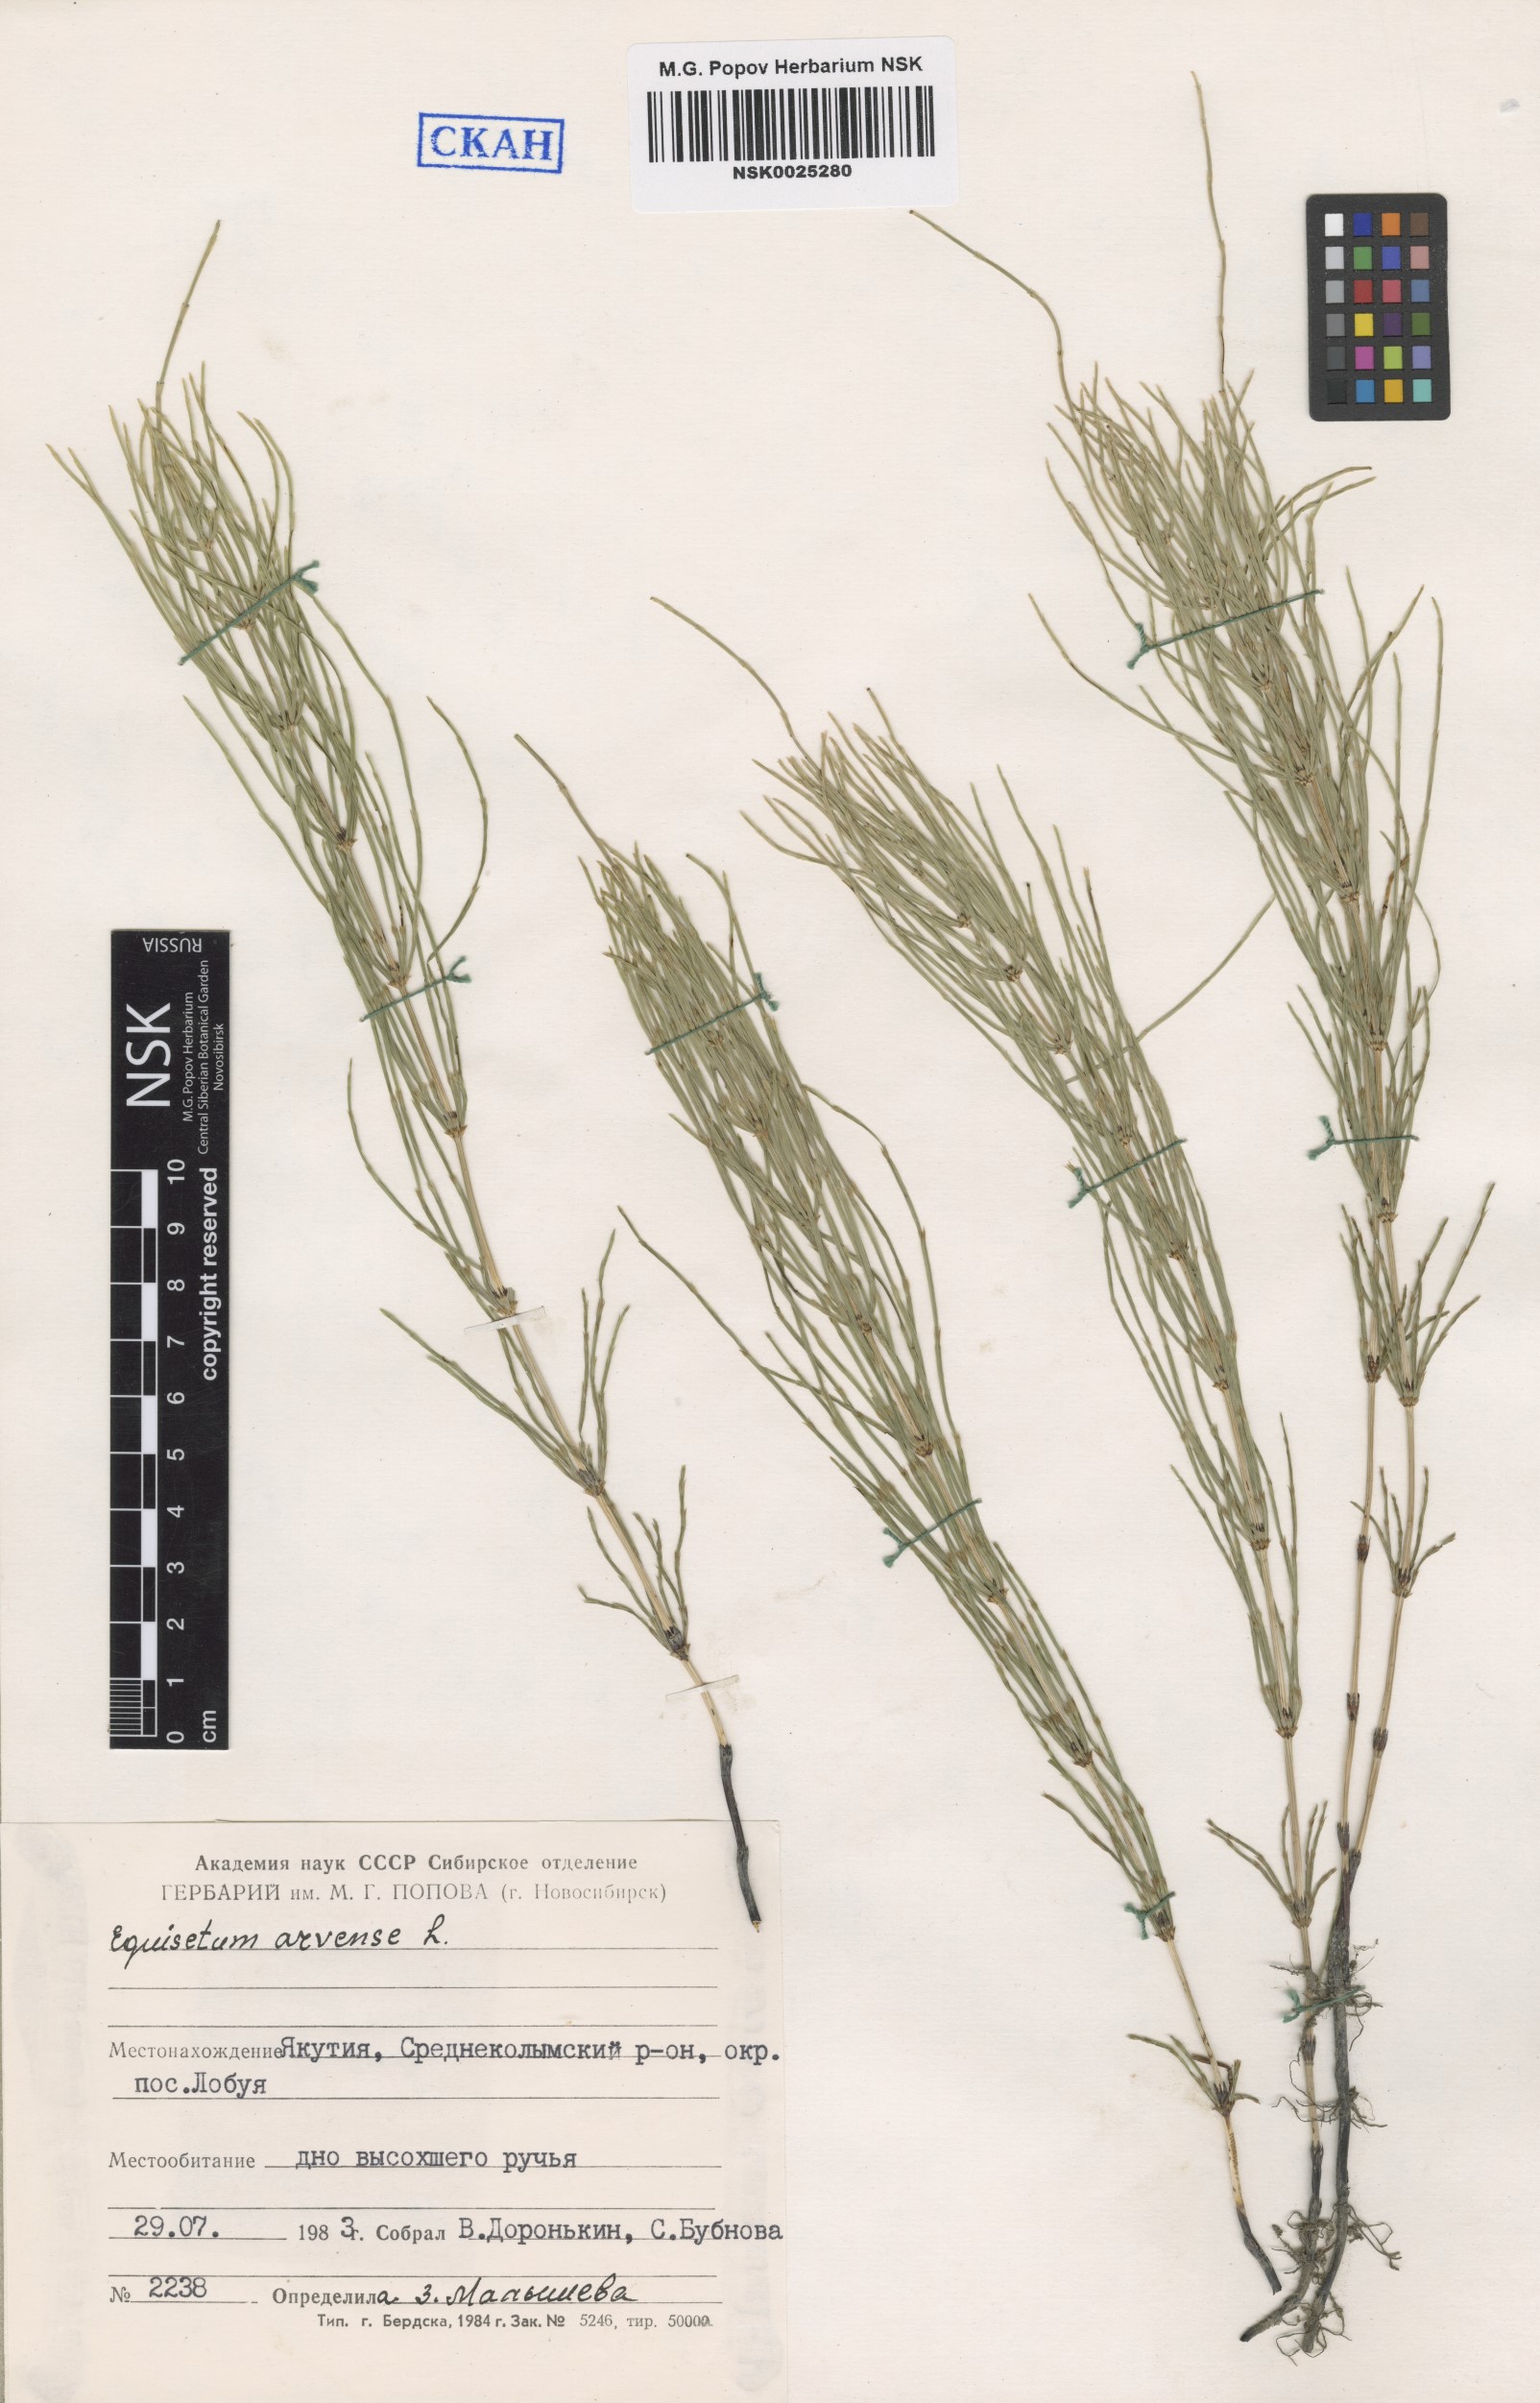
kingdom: Plantae
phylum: Tracheophyta
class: Polypodiopsida
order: Equisetales
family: Equisetaceae
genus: Equisetum
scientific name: Equisetum arvense
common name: Field horsetail
